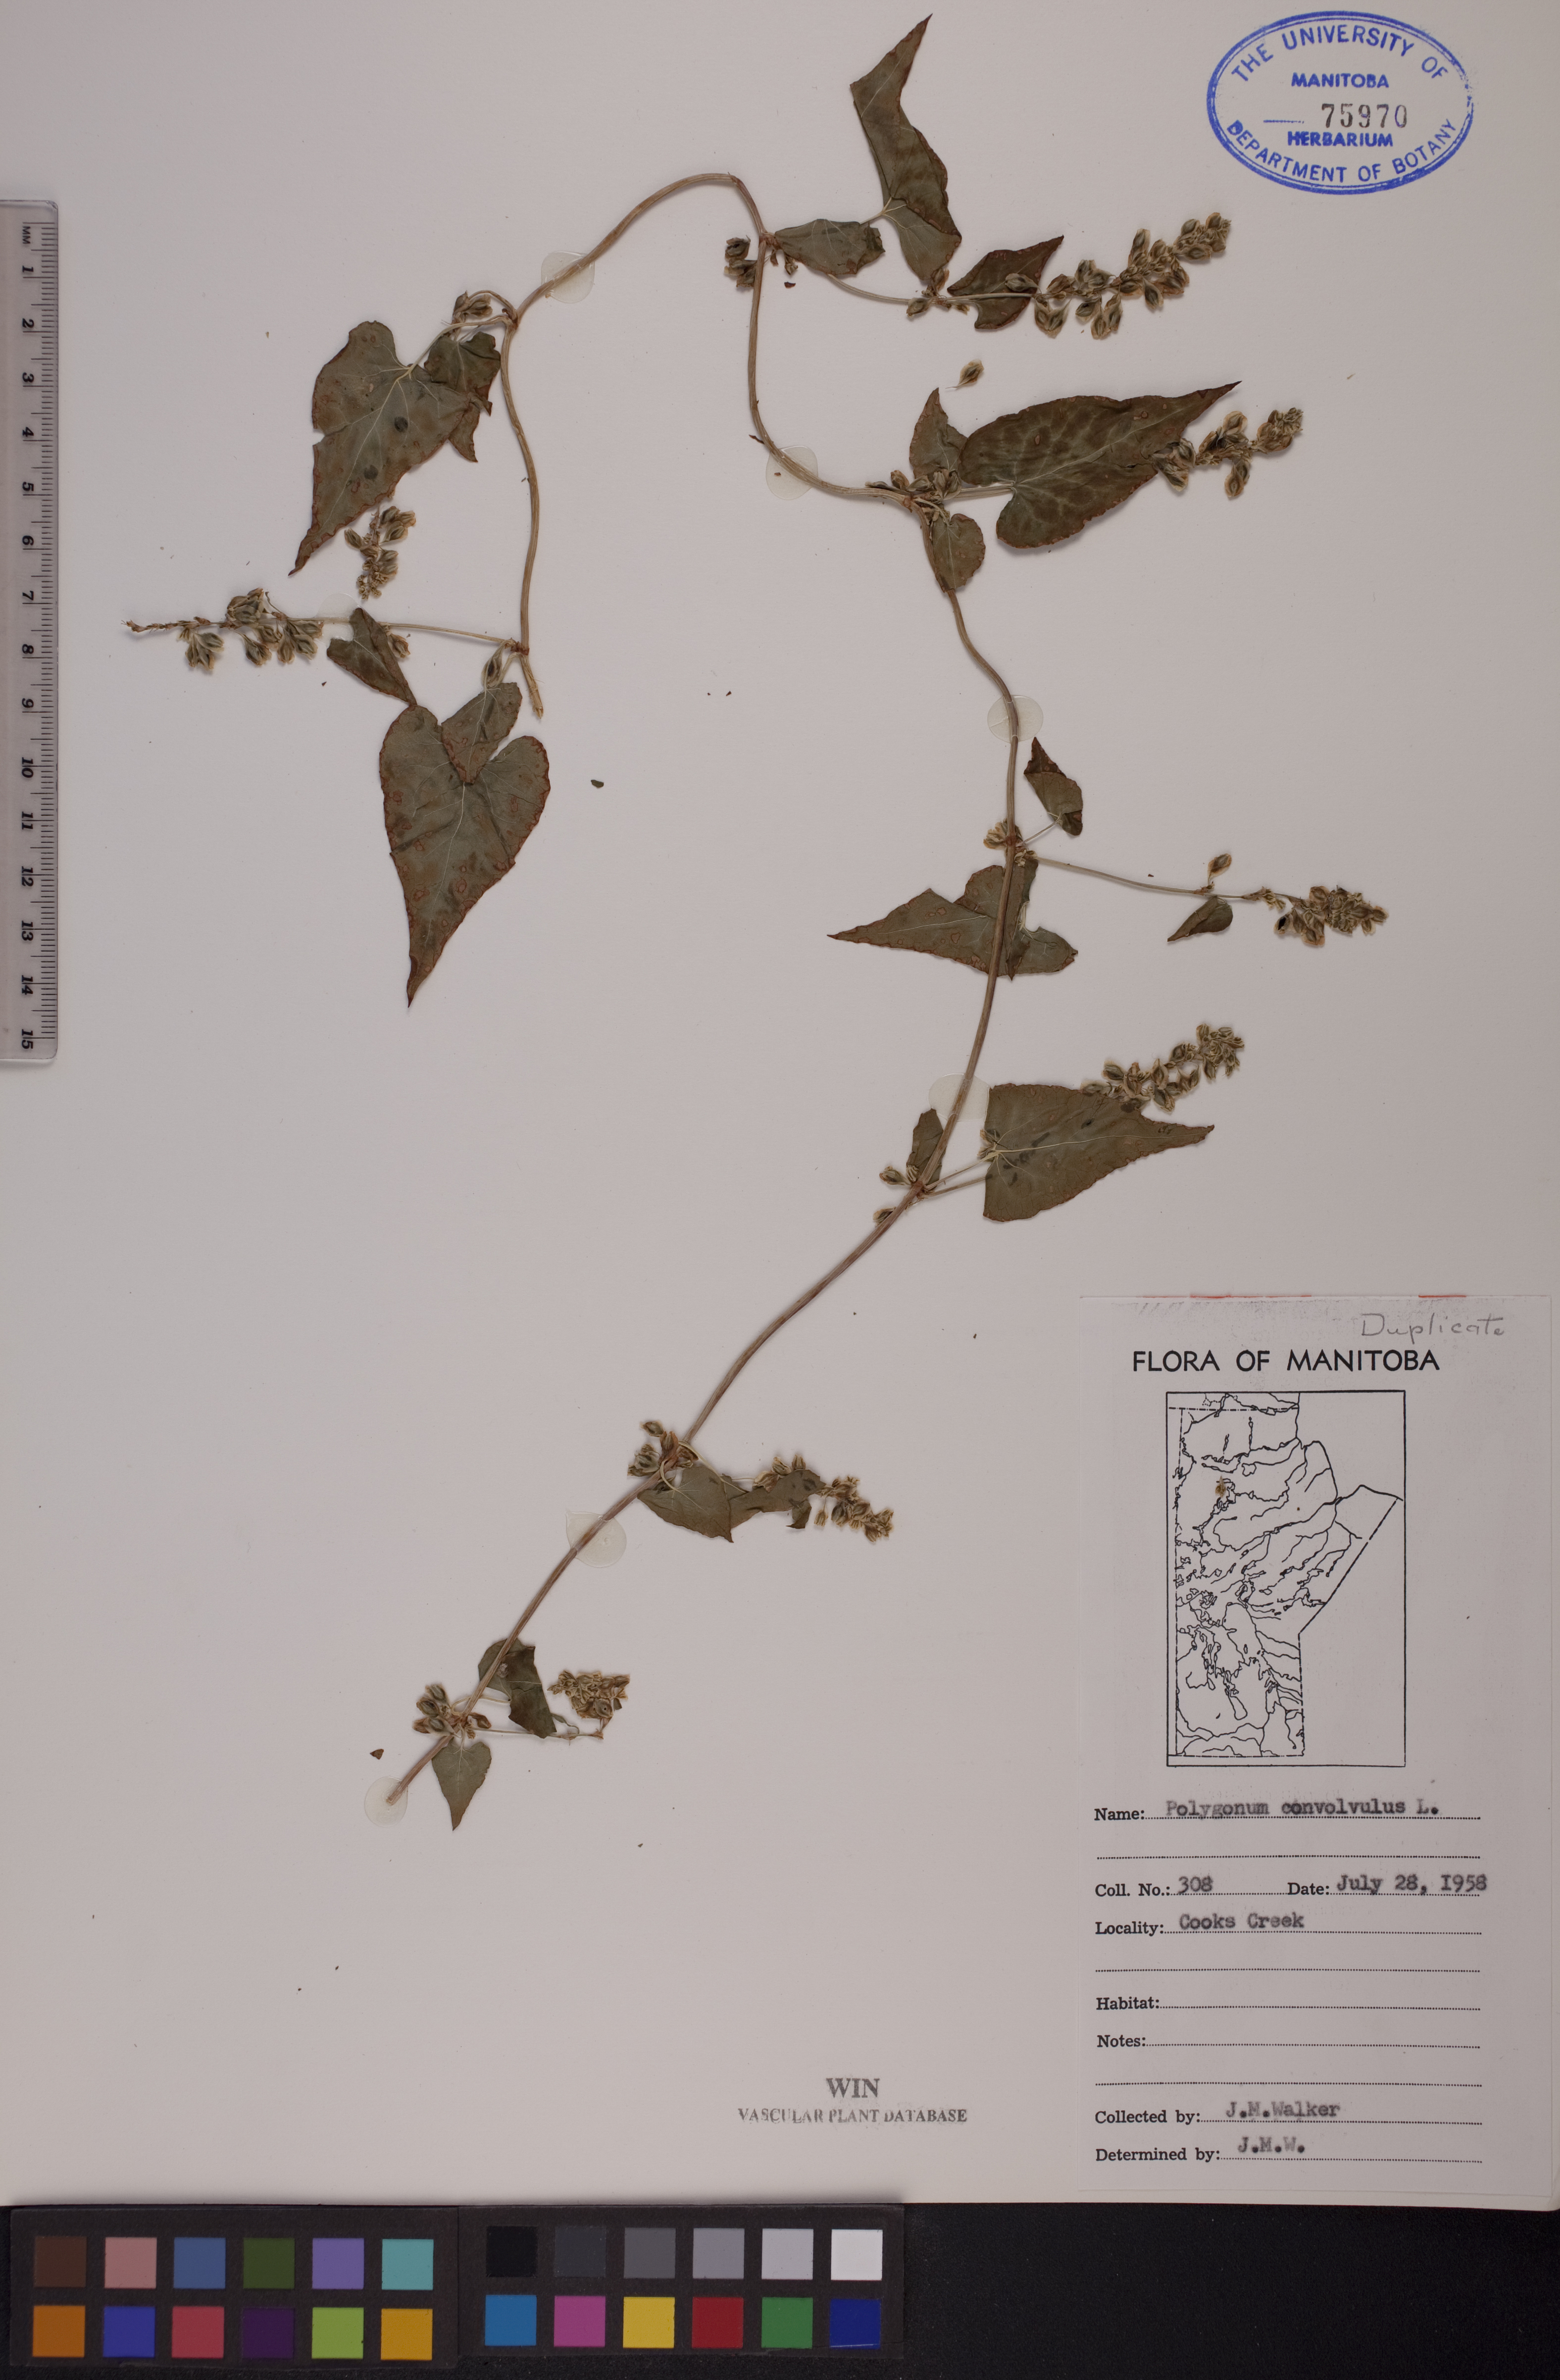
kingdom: Plantae
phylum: Tracheophyta
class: Magnoliopsida
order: Caryophyllales
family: Polygonaceae
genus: Fallopia
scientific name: Fallopia convolvulus
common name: Black bindweed
